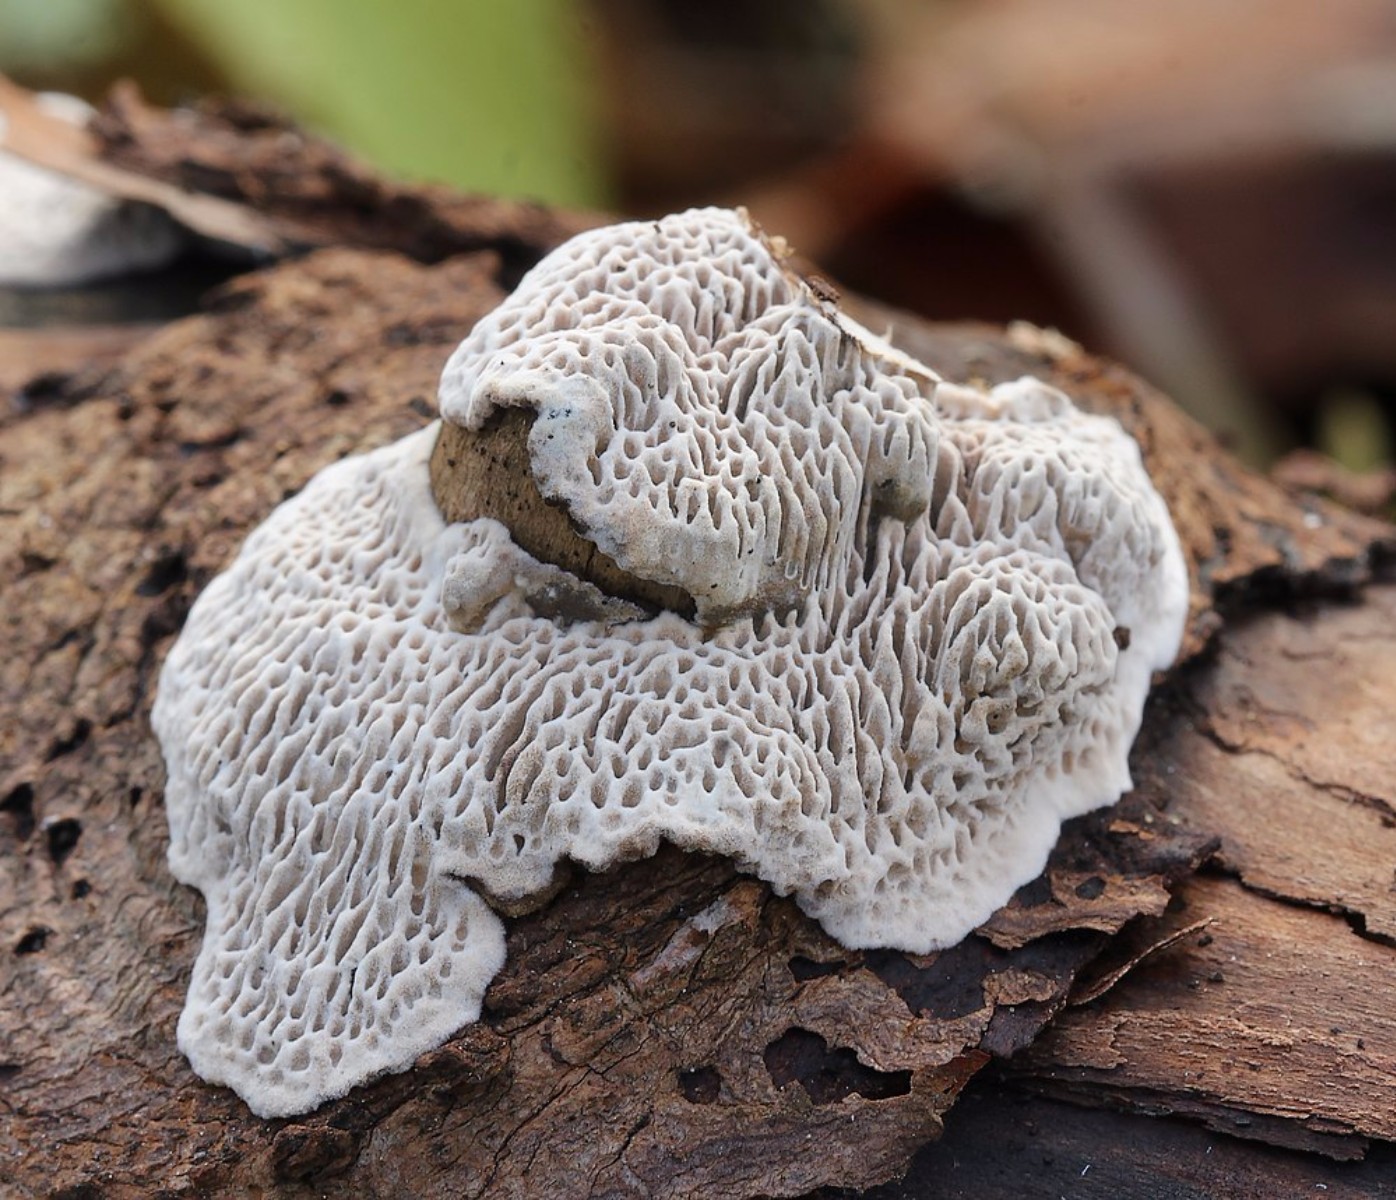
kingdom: Fungi
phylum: Basidiomycota
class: Agaricomycetes
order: Polyporales
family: Polyporaceae
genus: Podofomes
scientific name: Podofomes mollis
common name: blød begporesvamp
